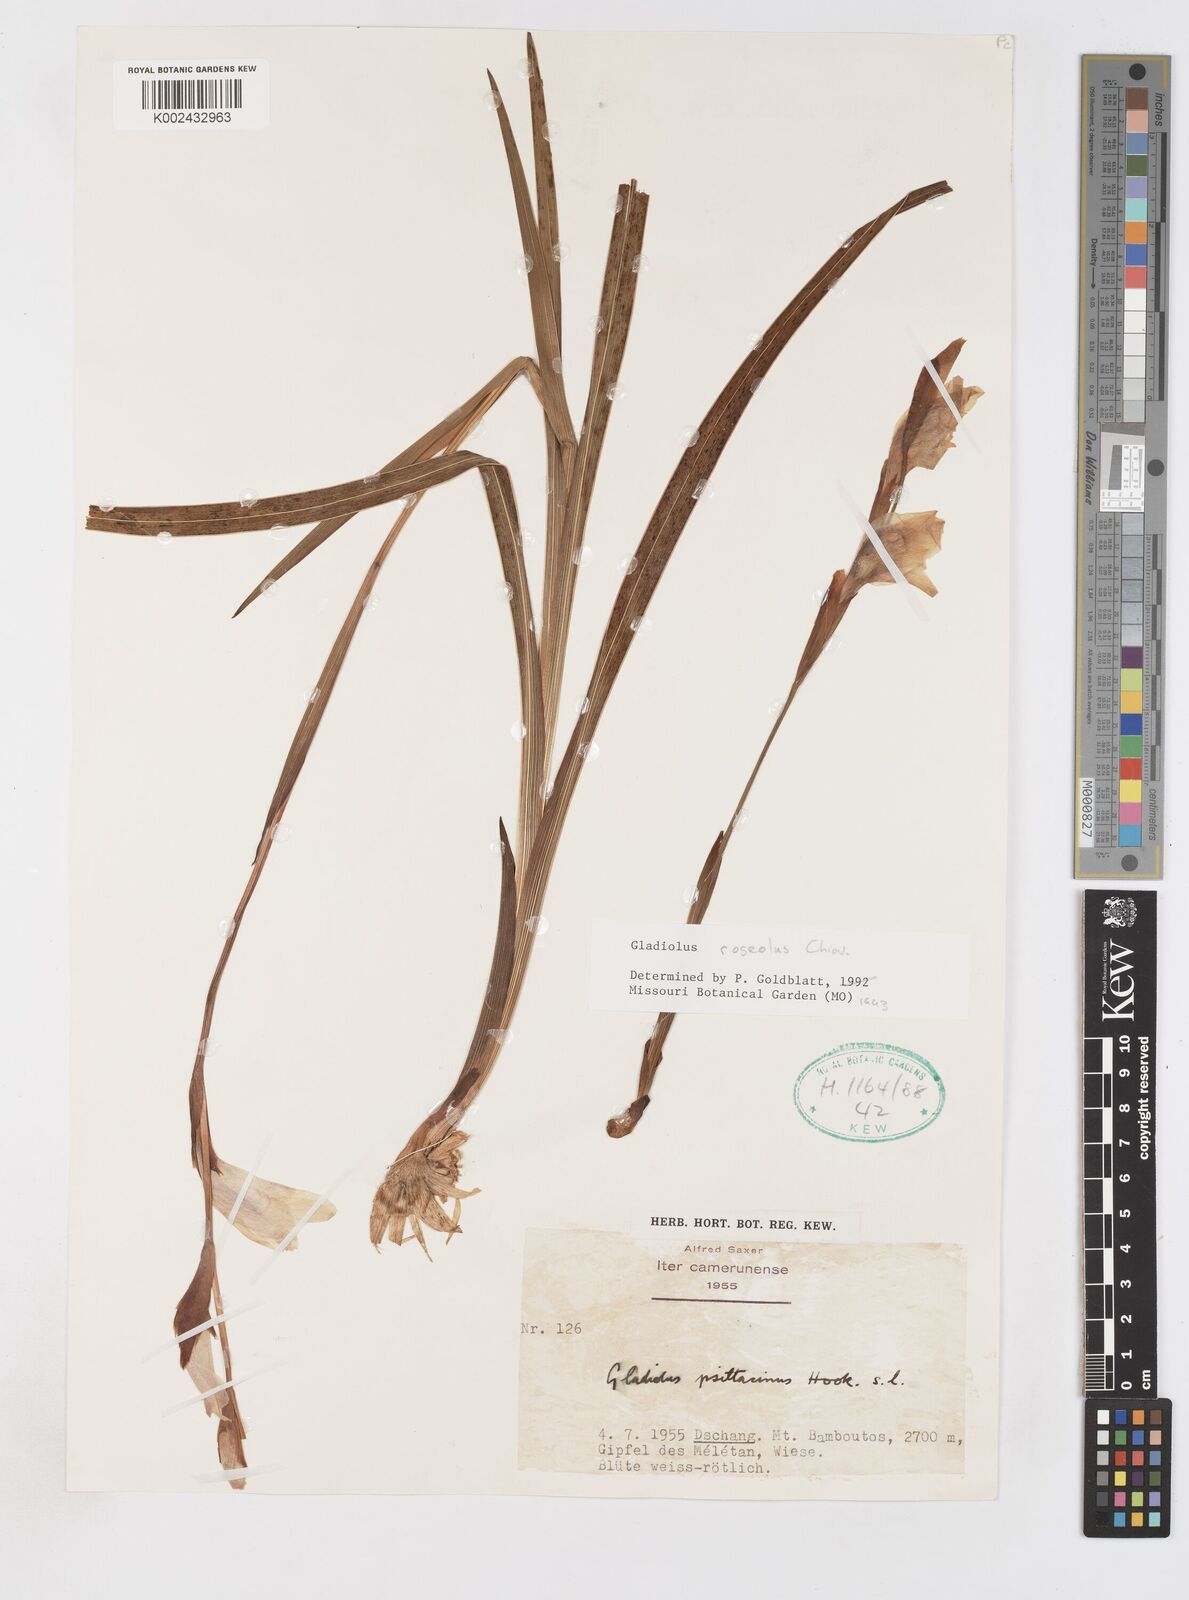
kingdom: Plantae
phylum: Tracheophyta
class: Liliopsida
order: Asparagales
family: Iridaceae
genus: Gladiolus
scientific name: Gladiolus roseolus
